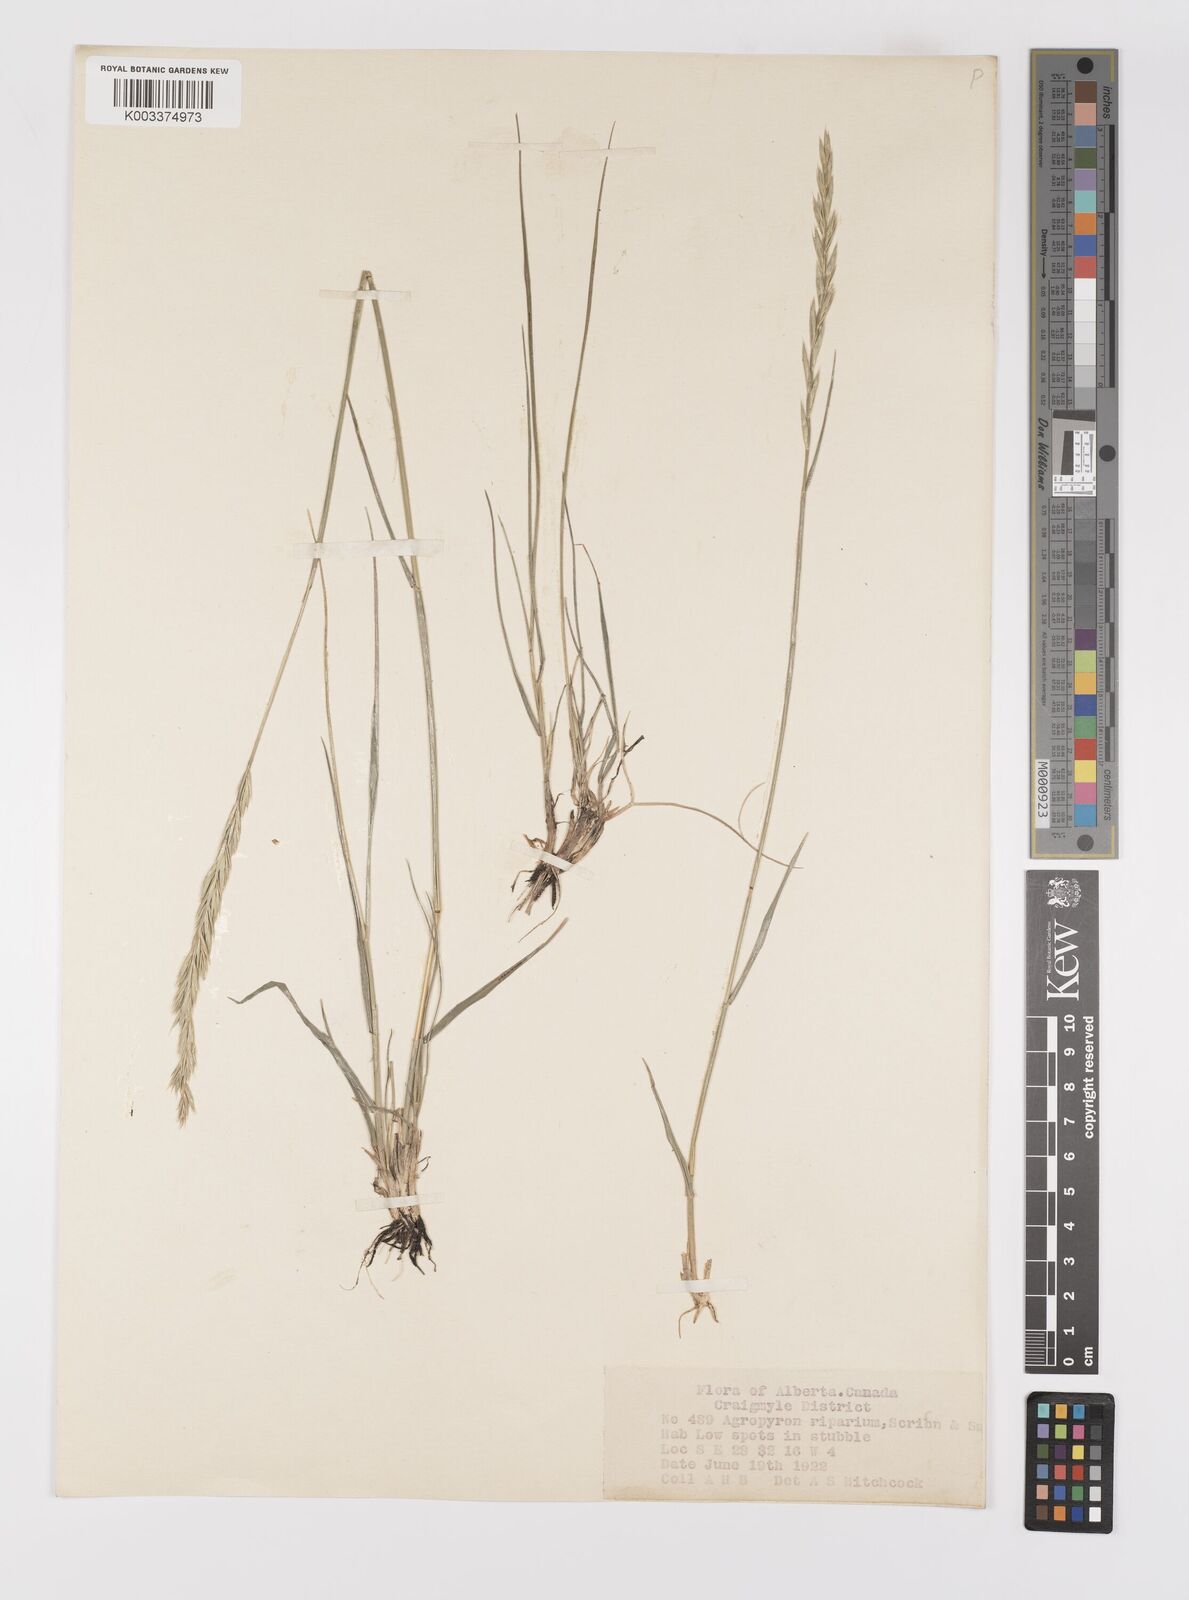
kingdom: Plantae
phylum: Tracheophyta
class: Liliopsida
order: Poales
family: Poaceae
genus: Elymus
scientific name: Elymus lanceolatus
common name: Thick-spike wheatgrass
